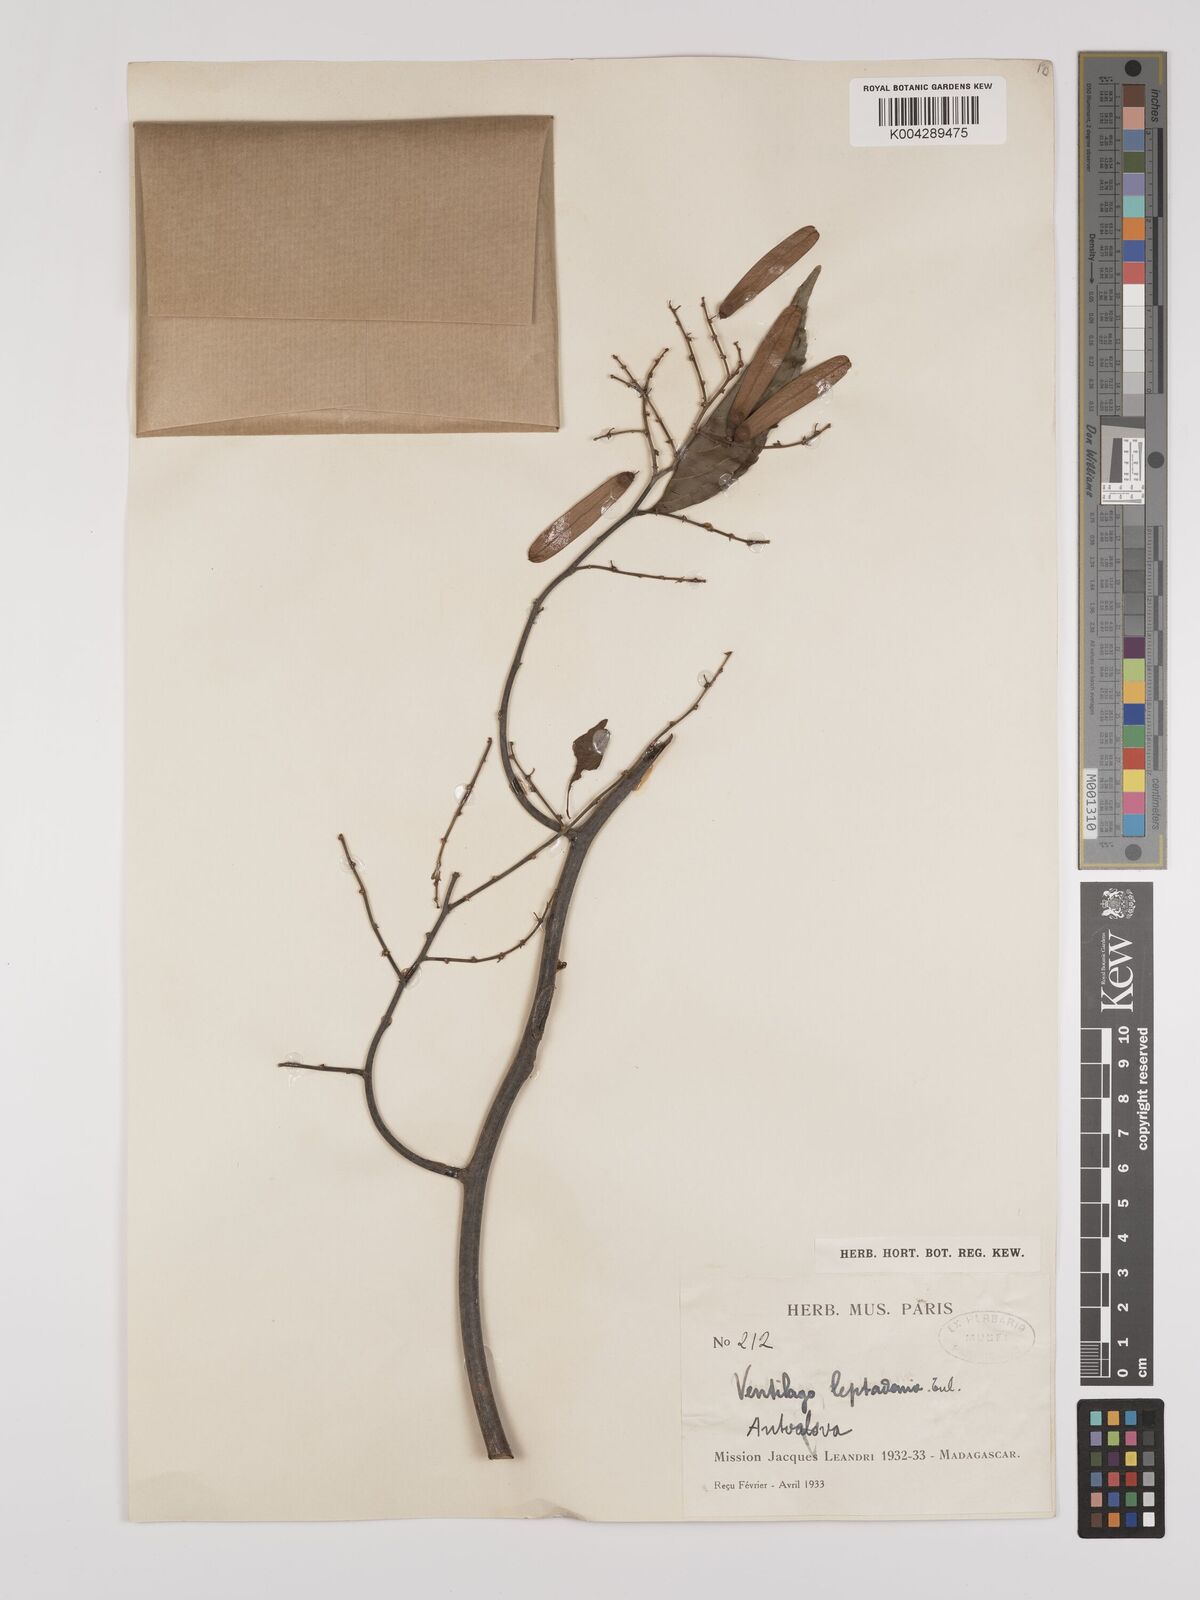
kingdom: Plantae
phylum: Tracheophyta
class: Magnoliopsida
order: Rosales
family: Rhamnaceae
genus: Ventilago
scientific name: Ventilago leptadenia
